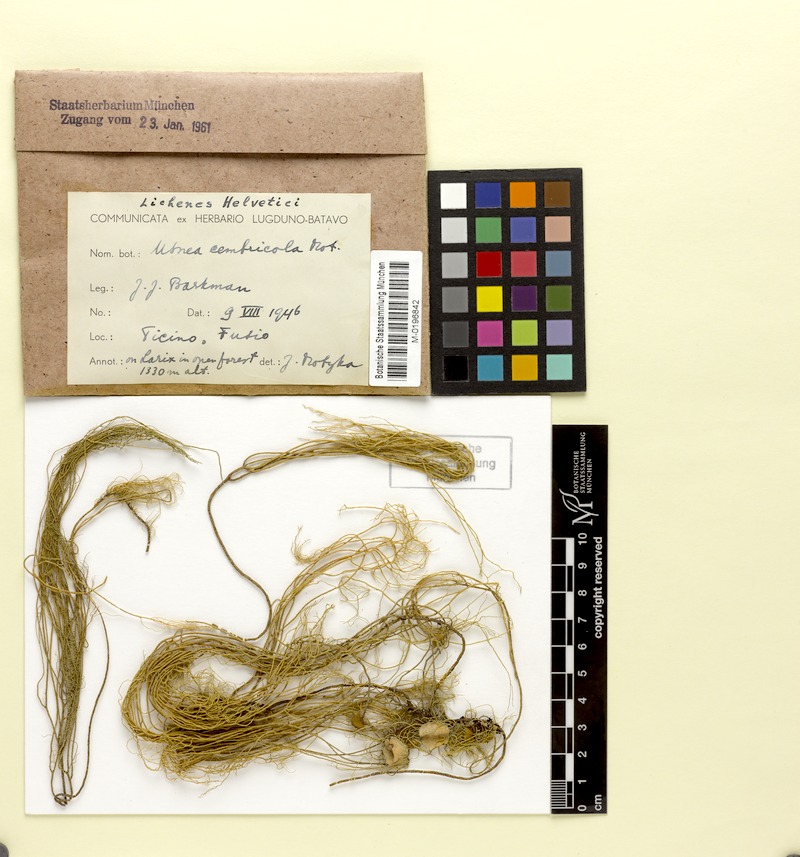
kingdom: Fungi
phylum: Ascomycota
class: Lecanoromycetes
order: Lecanorales
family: Parmeliaceae
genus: Usnea
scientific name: Usnea hirta
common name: Bristly beard lichen
